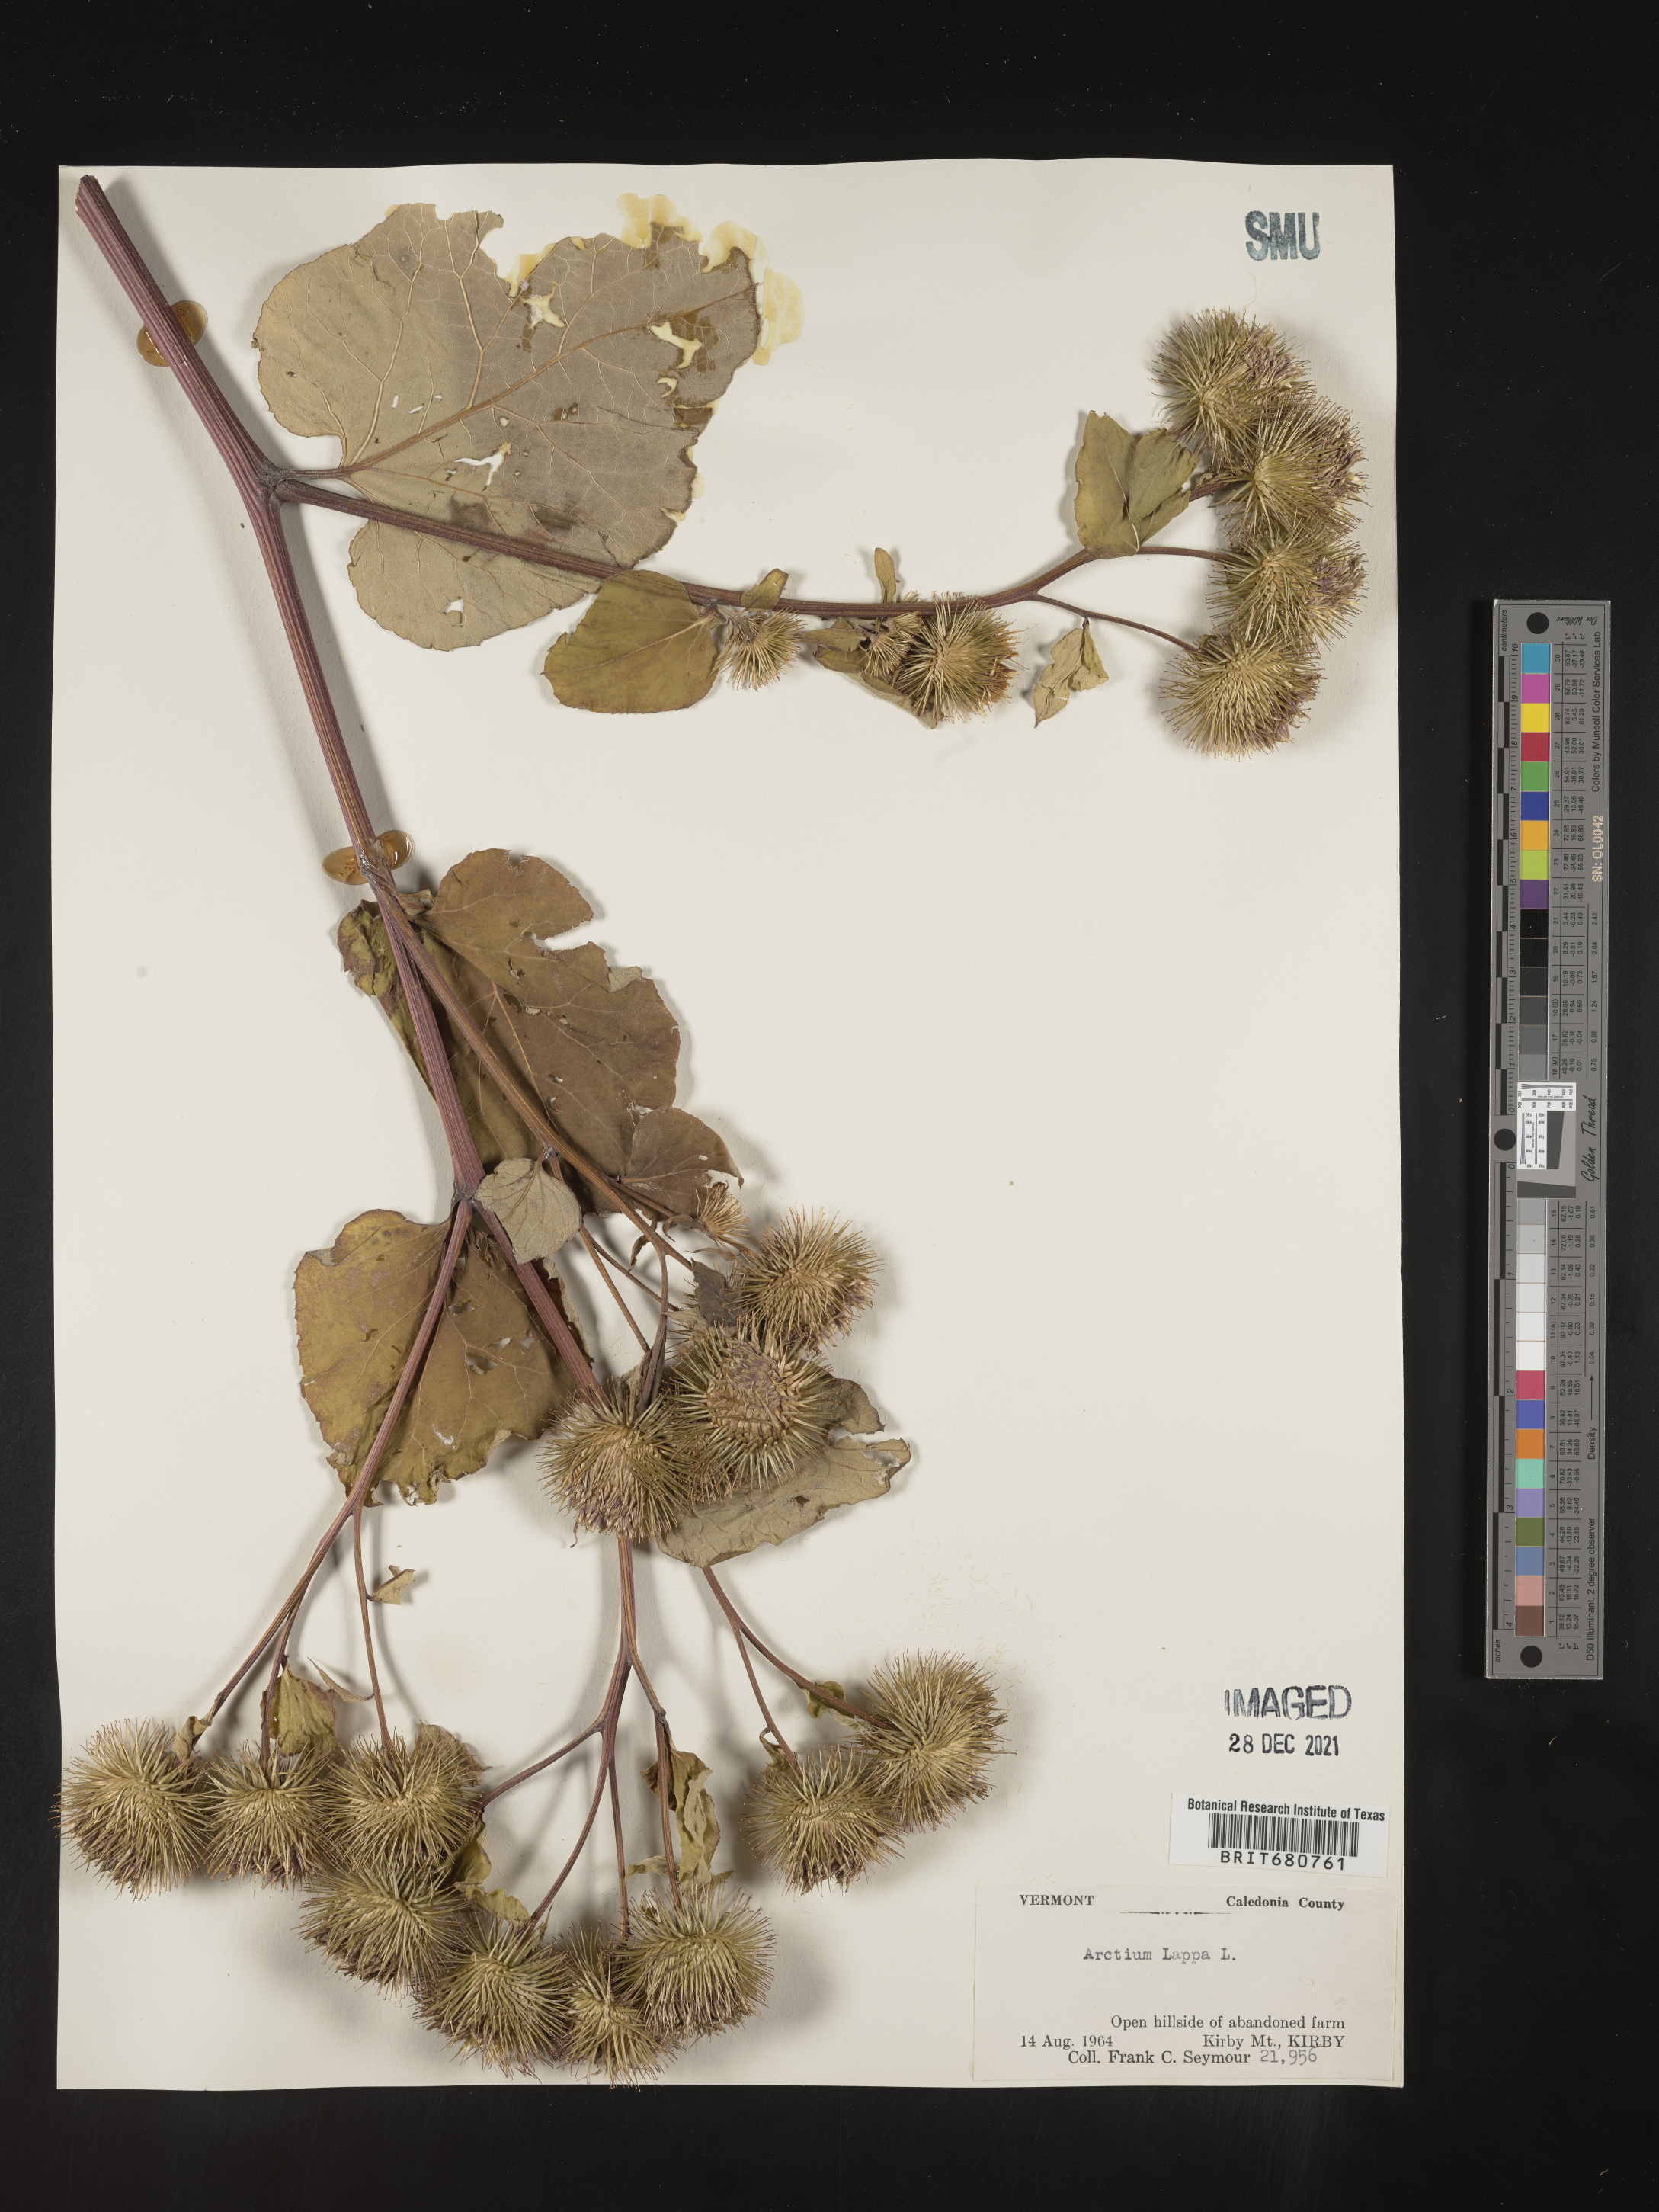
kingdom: Plantae
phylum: Tracheophyta
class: Magnoliopsida
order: Asterales
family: Asteraceae
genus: Arctium
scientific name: Arctium lappa
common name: Greater burdock
